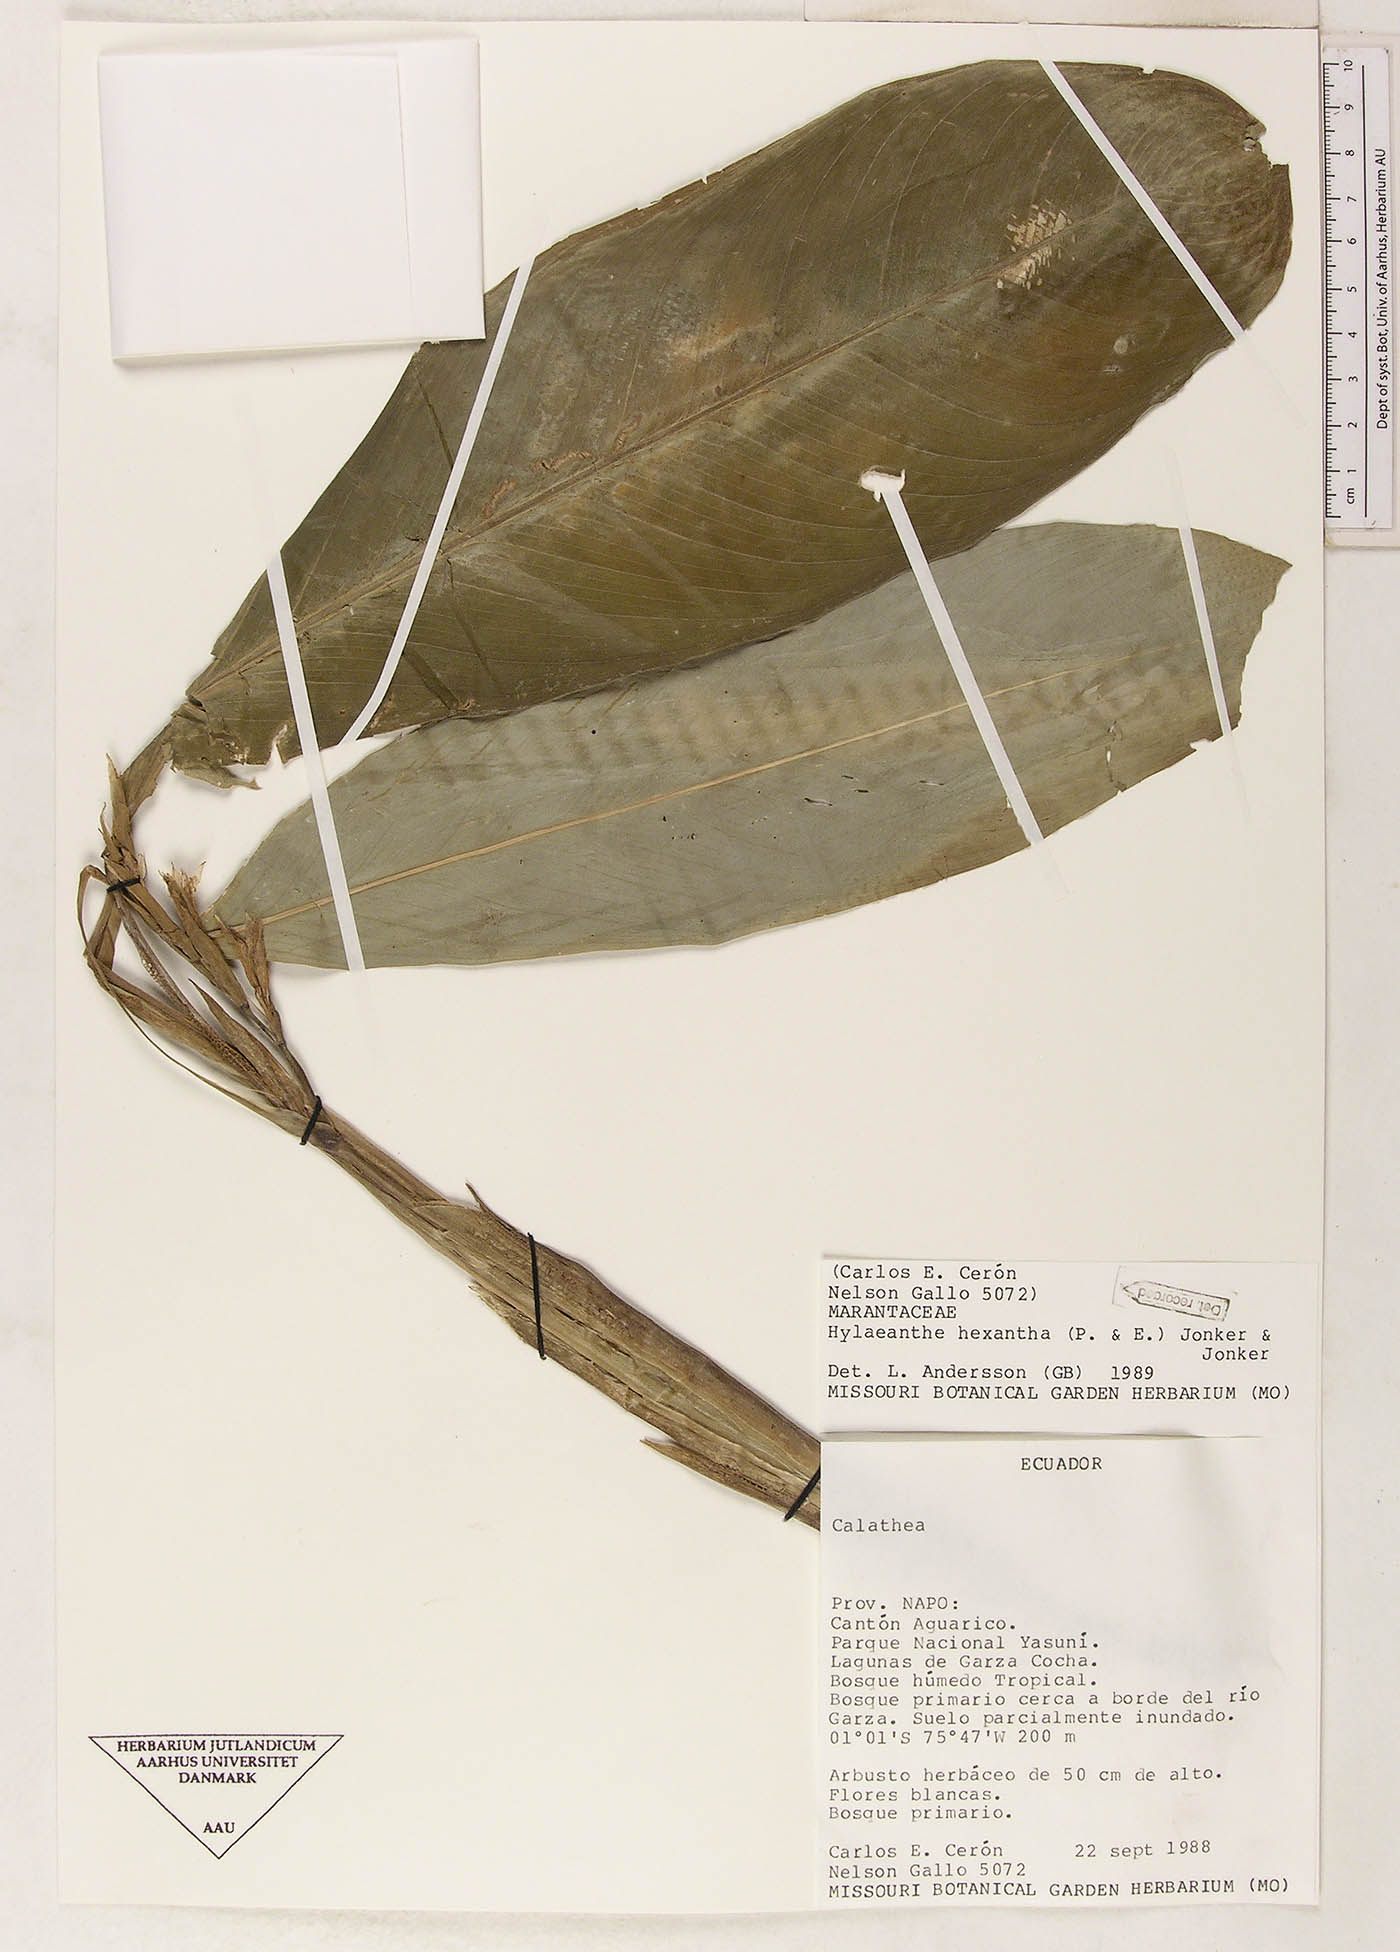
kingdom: Plantae
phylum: Tracheophyta
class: Liliopsida
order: Zingiberales
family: Marantaceae
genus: Hylaeanthe
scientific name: Hylaeanthe hexantha
